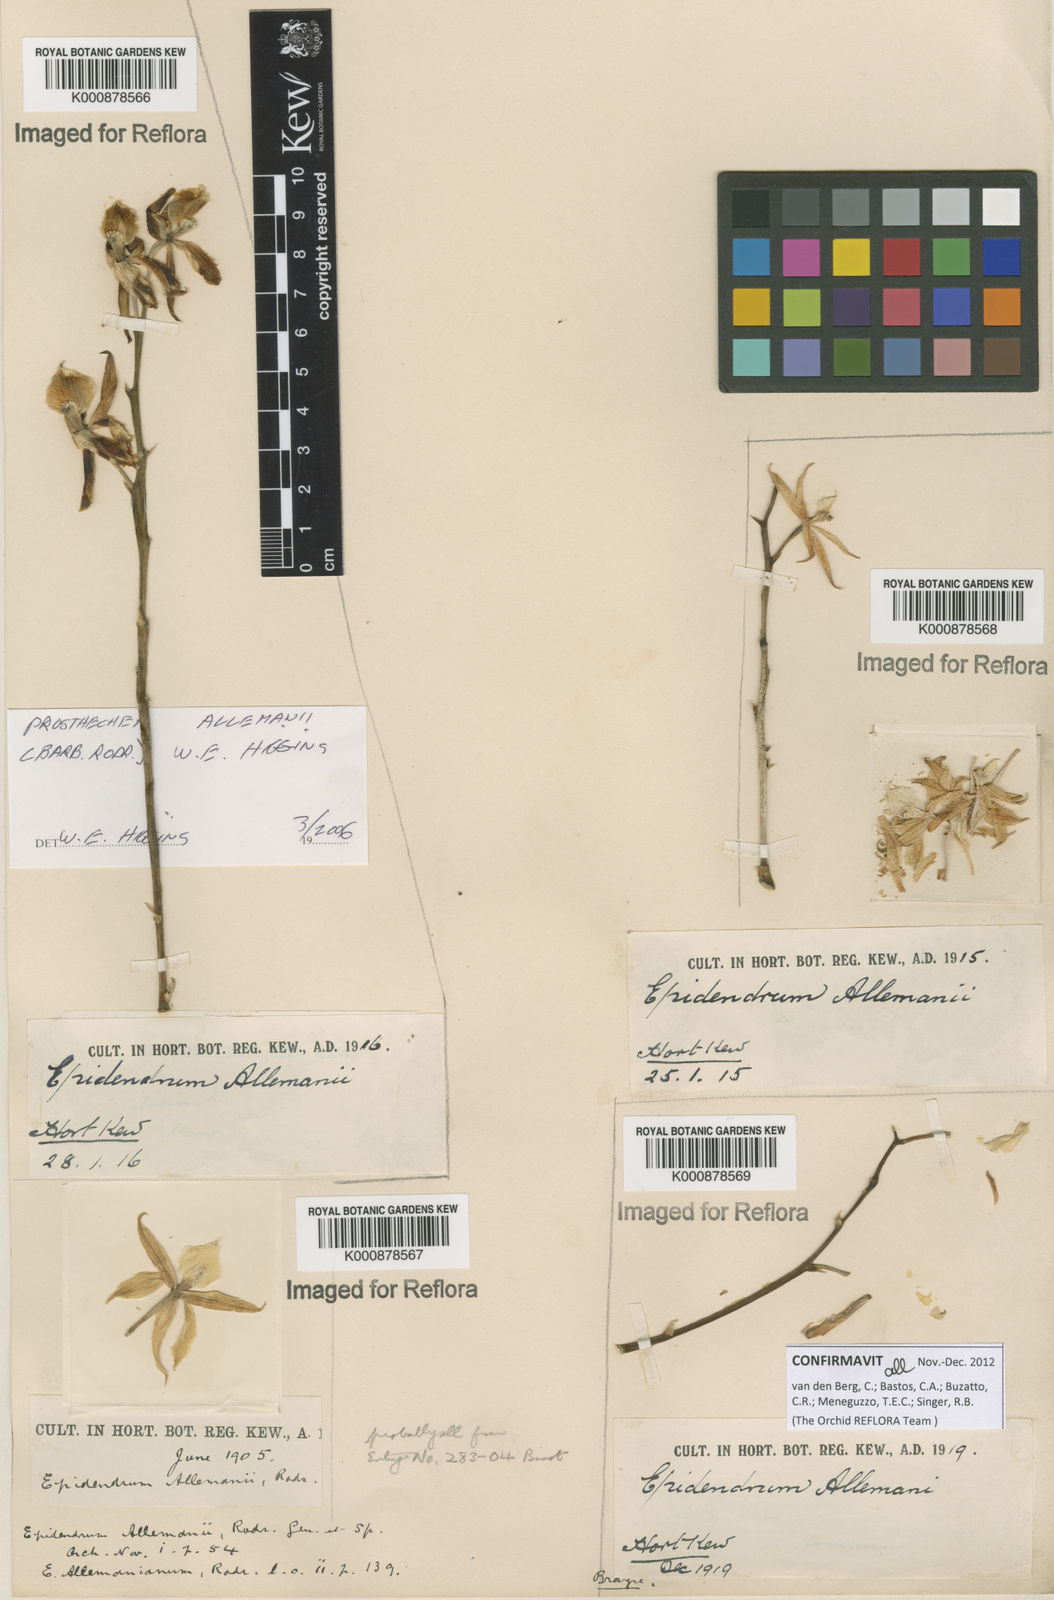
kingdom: Plantae
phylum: Tracheophyta
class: Liliopsida
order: Asparagales
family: Orchidaceae
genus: Prosthechea
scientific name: Prosthechea allemanii
